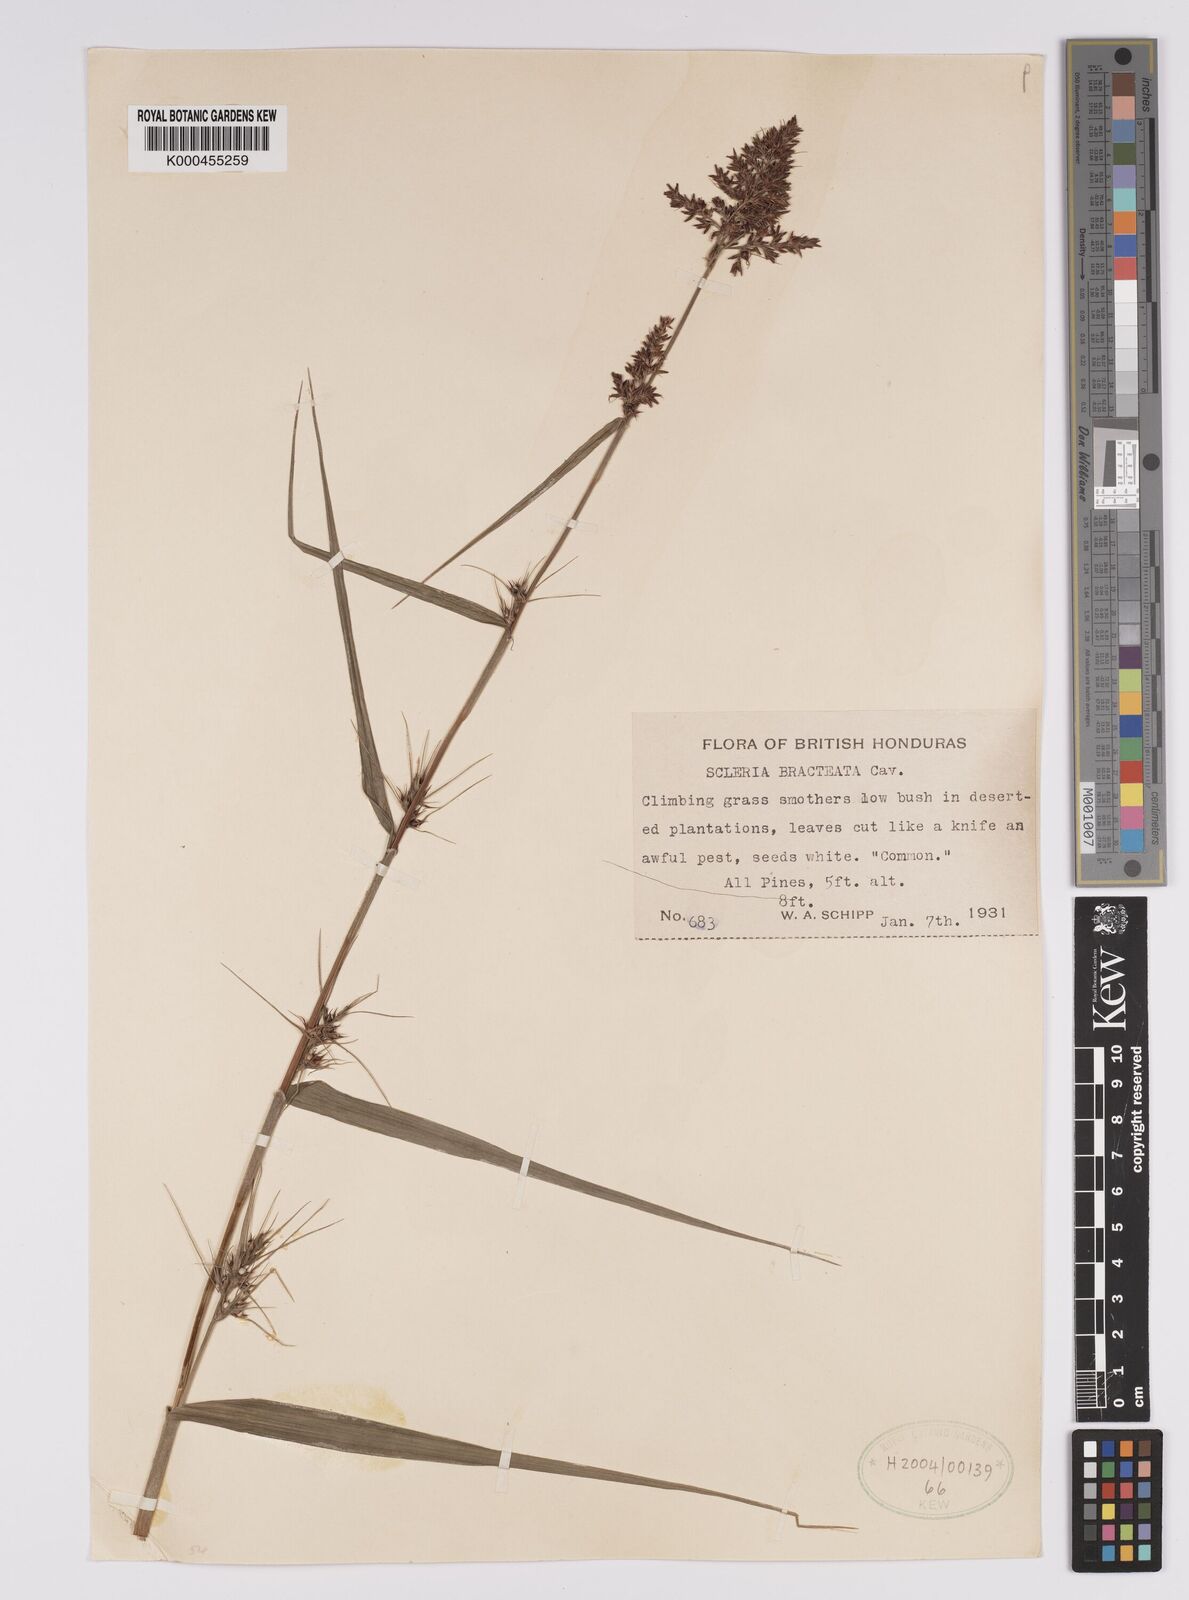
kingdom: Plantae
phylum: Tracheophyta
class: Liliopsida
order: Poales
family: Cyperaceae
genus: Scleria
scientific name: Scleria bracteata
